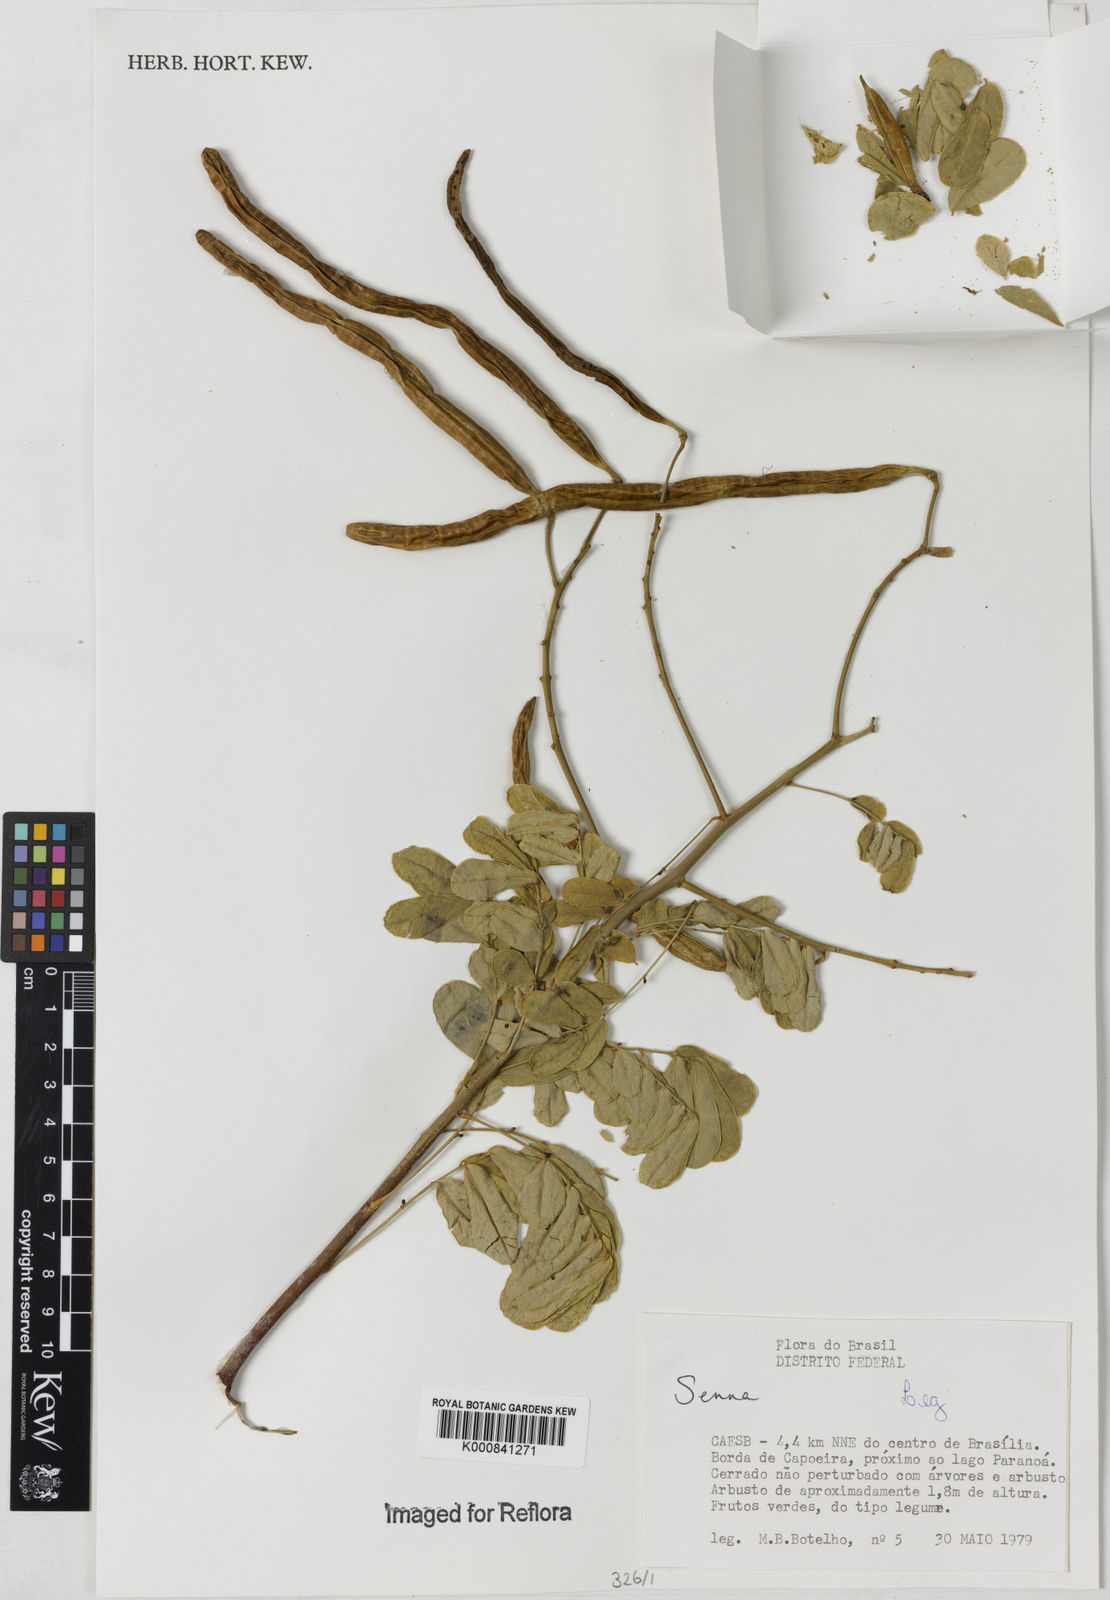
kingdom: Plantae
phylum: Tracheophyta
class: Magnoliopsida
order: Fabales
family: Fabaceae
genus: Senna
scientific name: Senna
